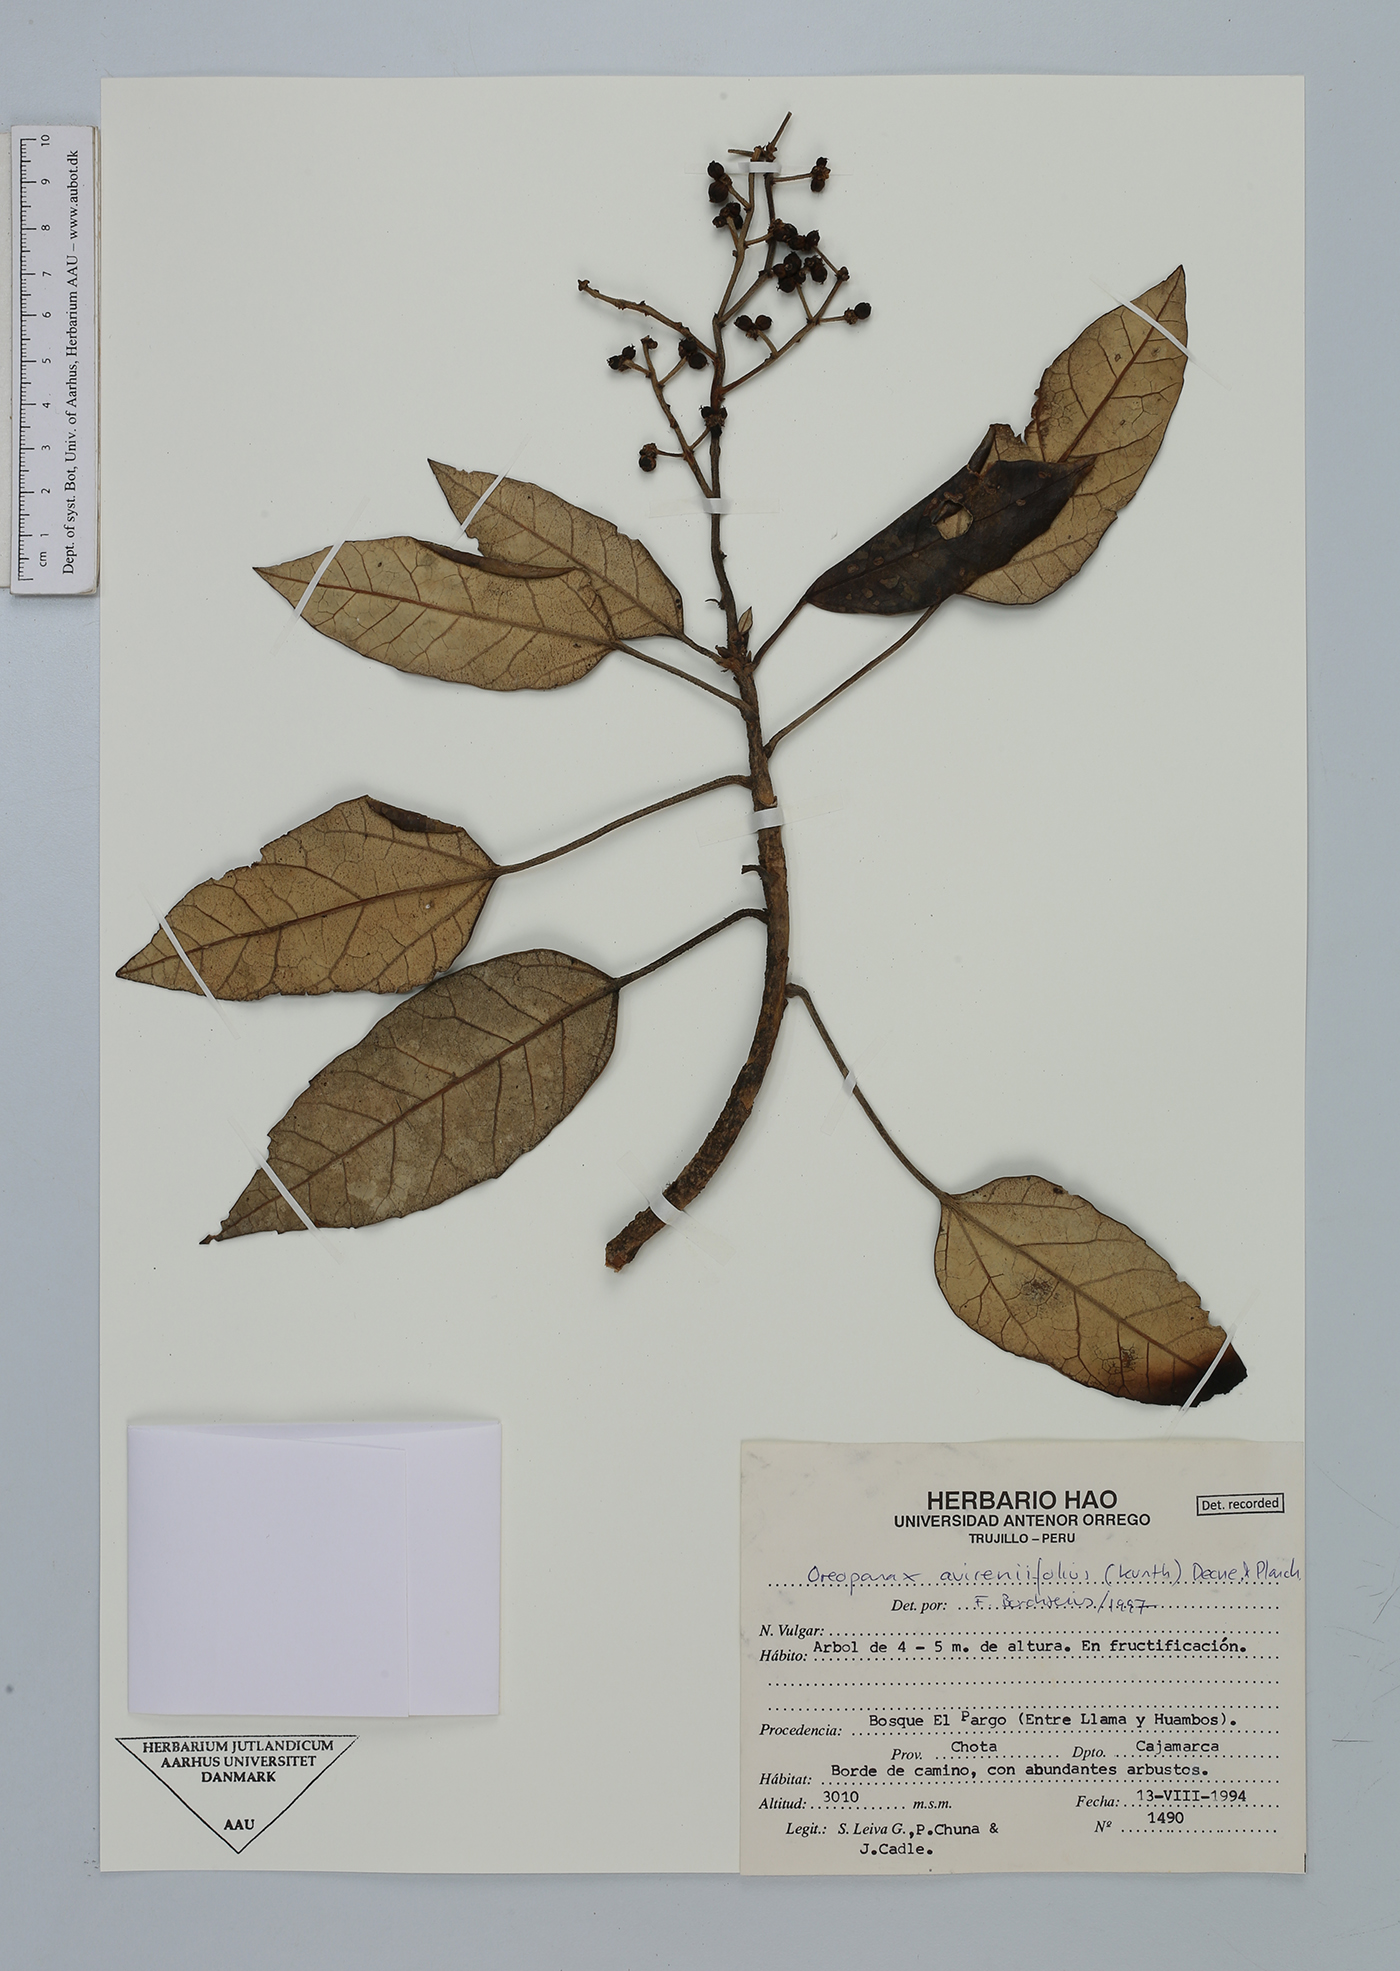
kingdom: Plantae
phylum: Tracheophyta
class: Magnoliopsida
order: Apiales
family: Araliaceae
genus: Oreopanax
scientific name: Oreopanax avicenniifolius
